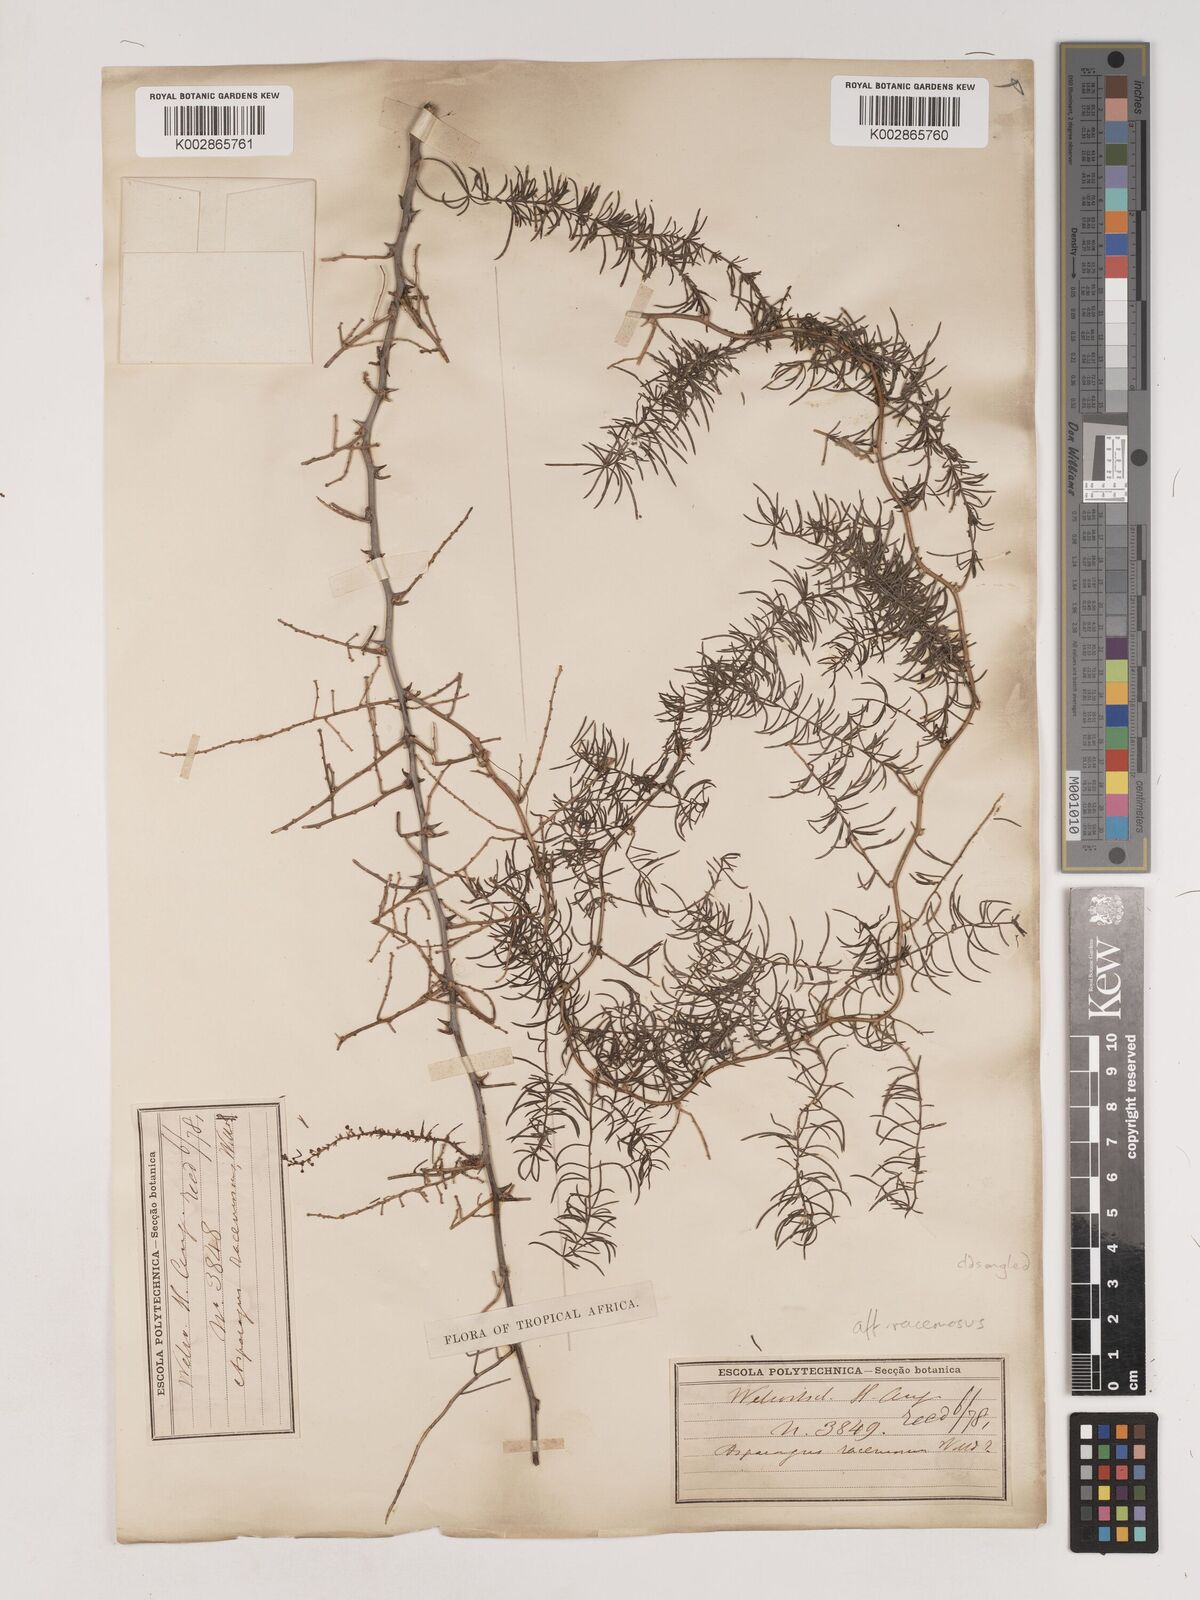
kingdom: Plantae
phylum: Tracheophyta
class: Liliopsida
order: Asparagales
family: Asparagaceae
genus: Asparagus
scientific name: Asparagus racemosus
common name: Asparagus-fern
